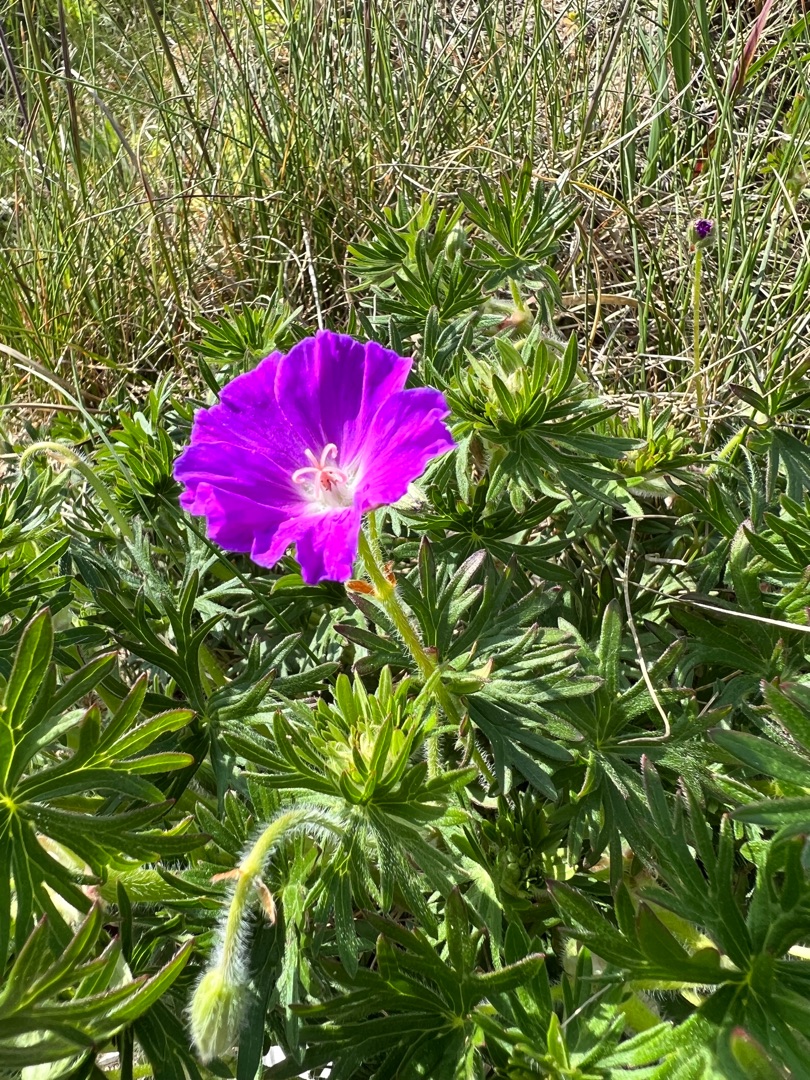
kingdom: Plantae
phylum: Tracheophyta
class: Magnoliopsida
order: Geraniales
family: Geraniaceae
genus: Geranium
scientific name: Geranium sanguineum
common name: Blodrød storkenæb
